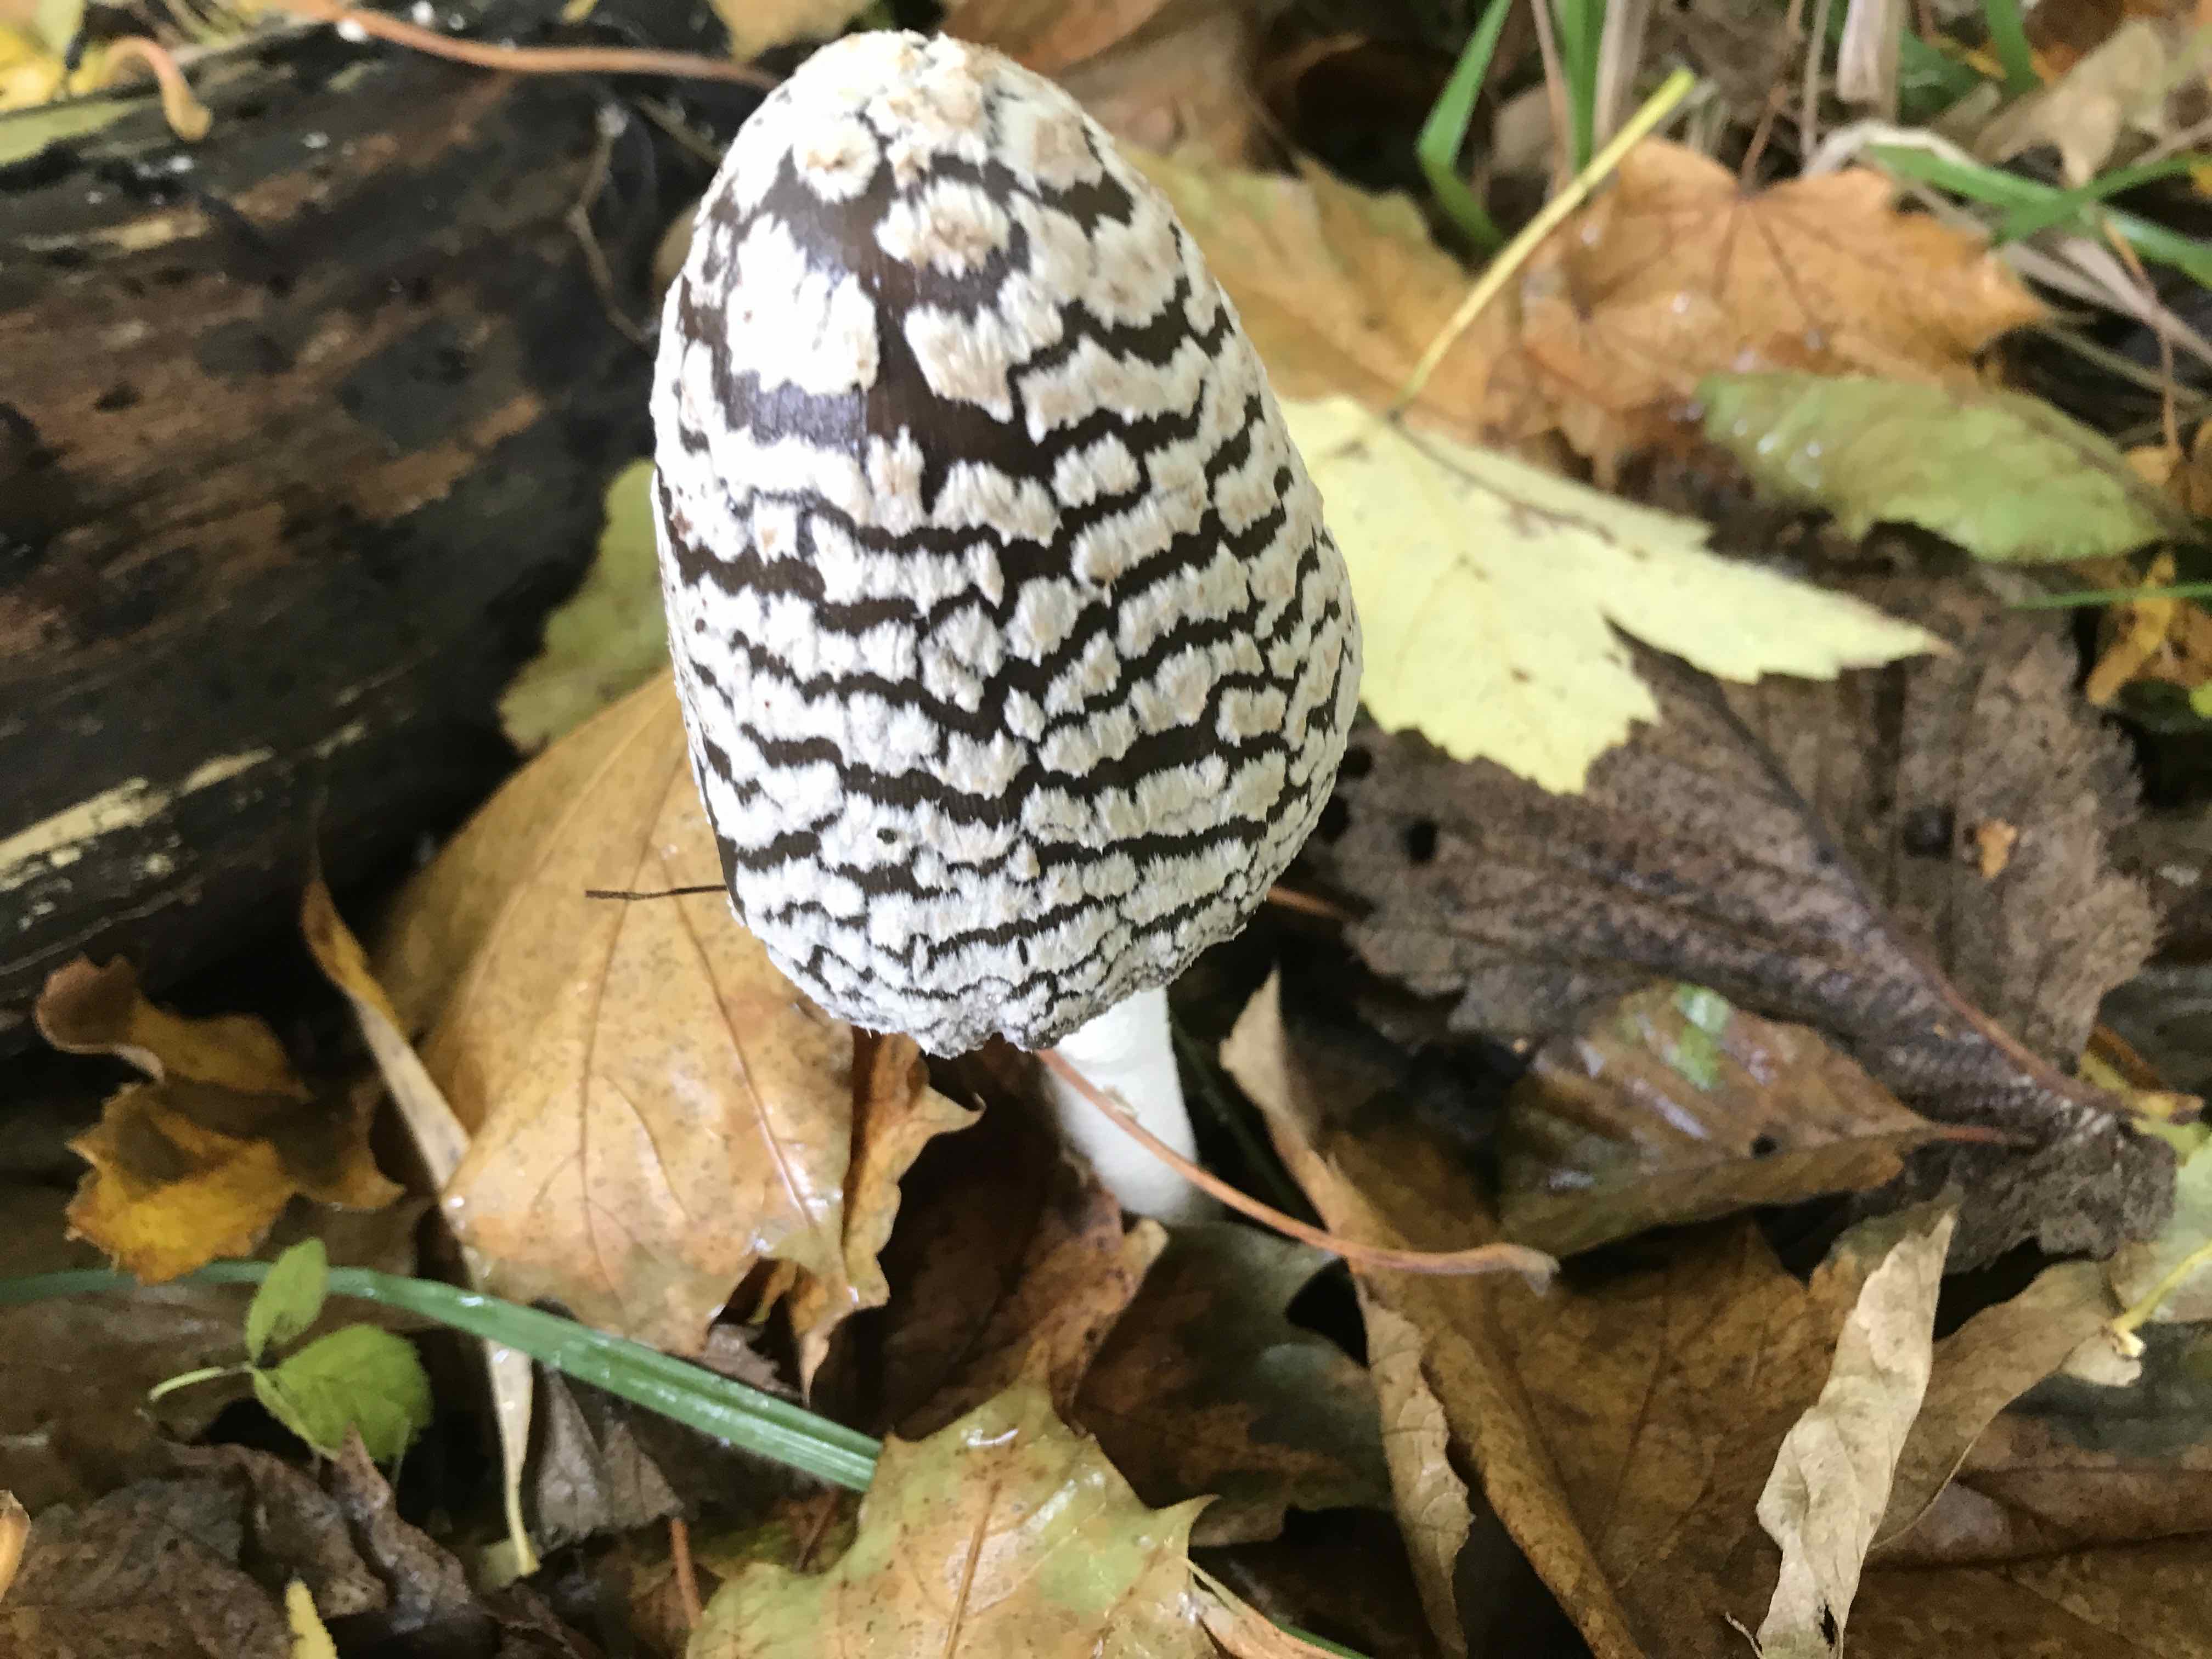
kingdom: Fungi
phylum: Basidiomycota
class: Agaricomycetes
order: Agaricales
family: Psathyrellaceae
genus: Coprinopsis
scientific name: Coprinopsis picacea
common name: skade-blækhat
